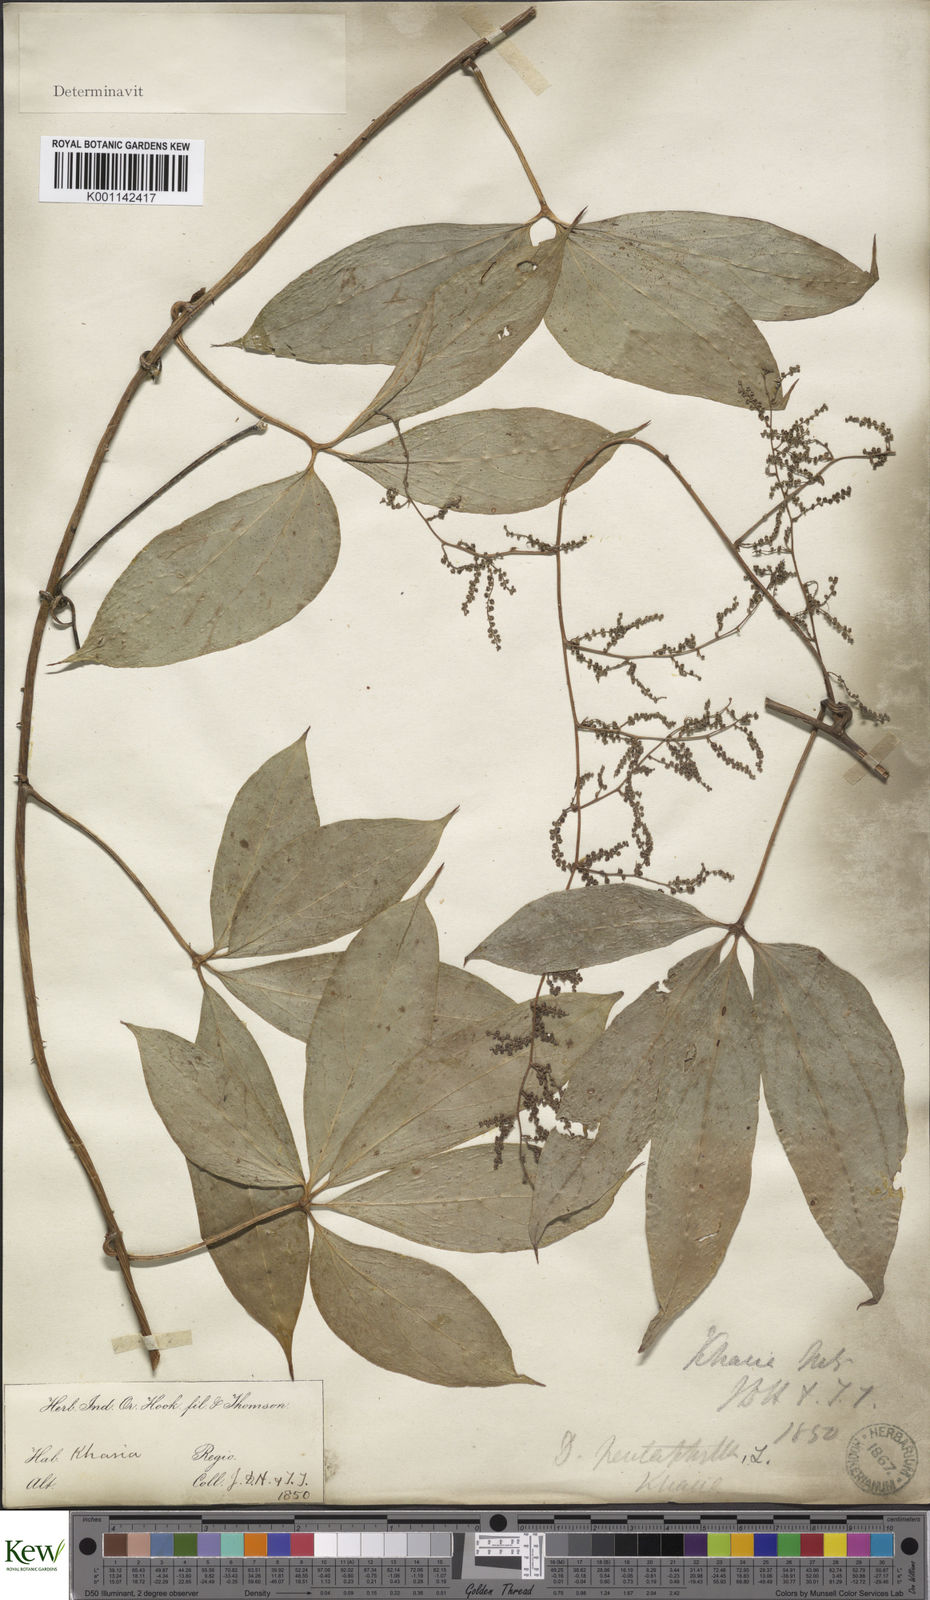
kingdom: Plantae
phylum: Tracheophyta
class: Liliopsida
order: Dioscoreales
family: Dioscoreaceae
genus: Dioscorea
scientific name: Dioscorea pentaphylla
